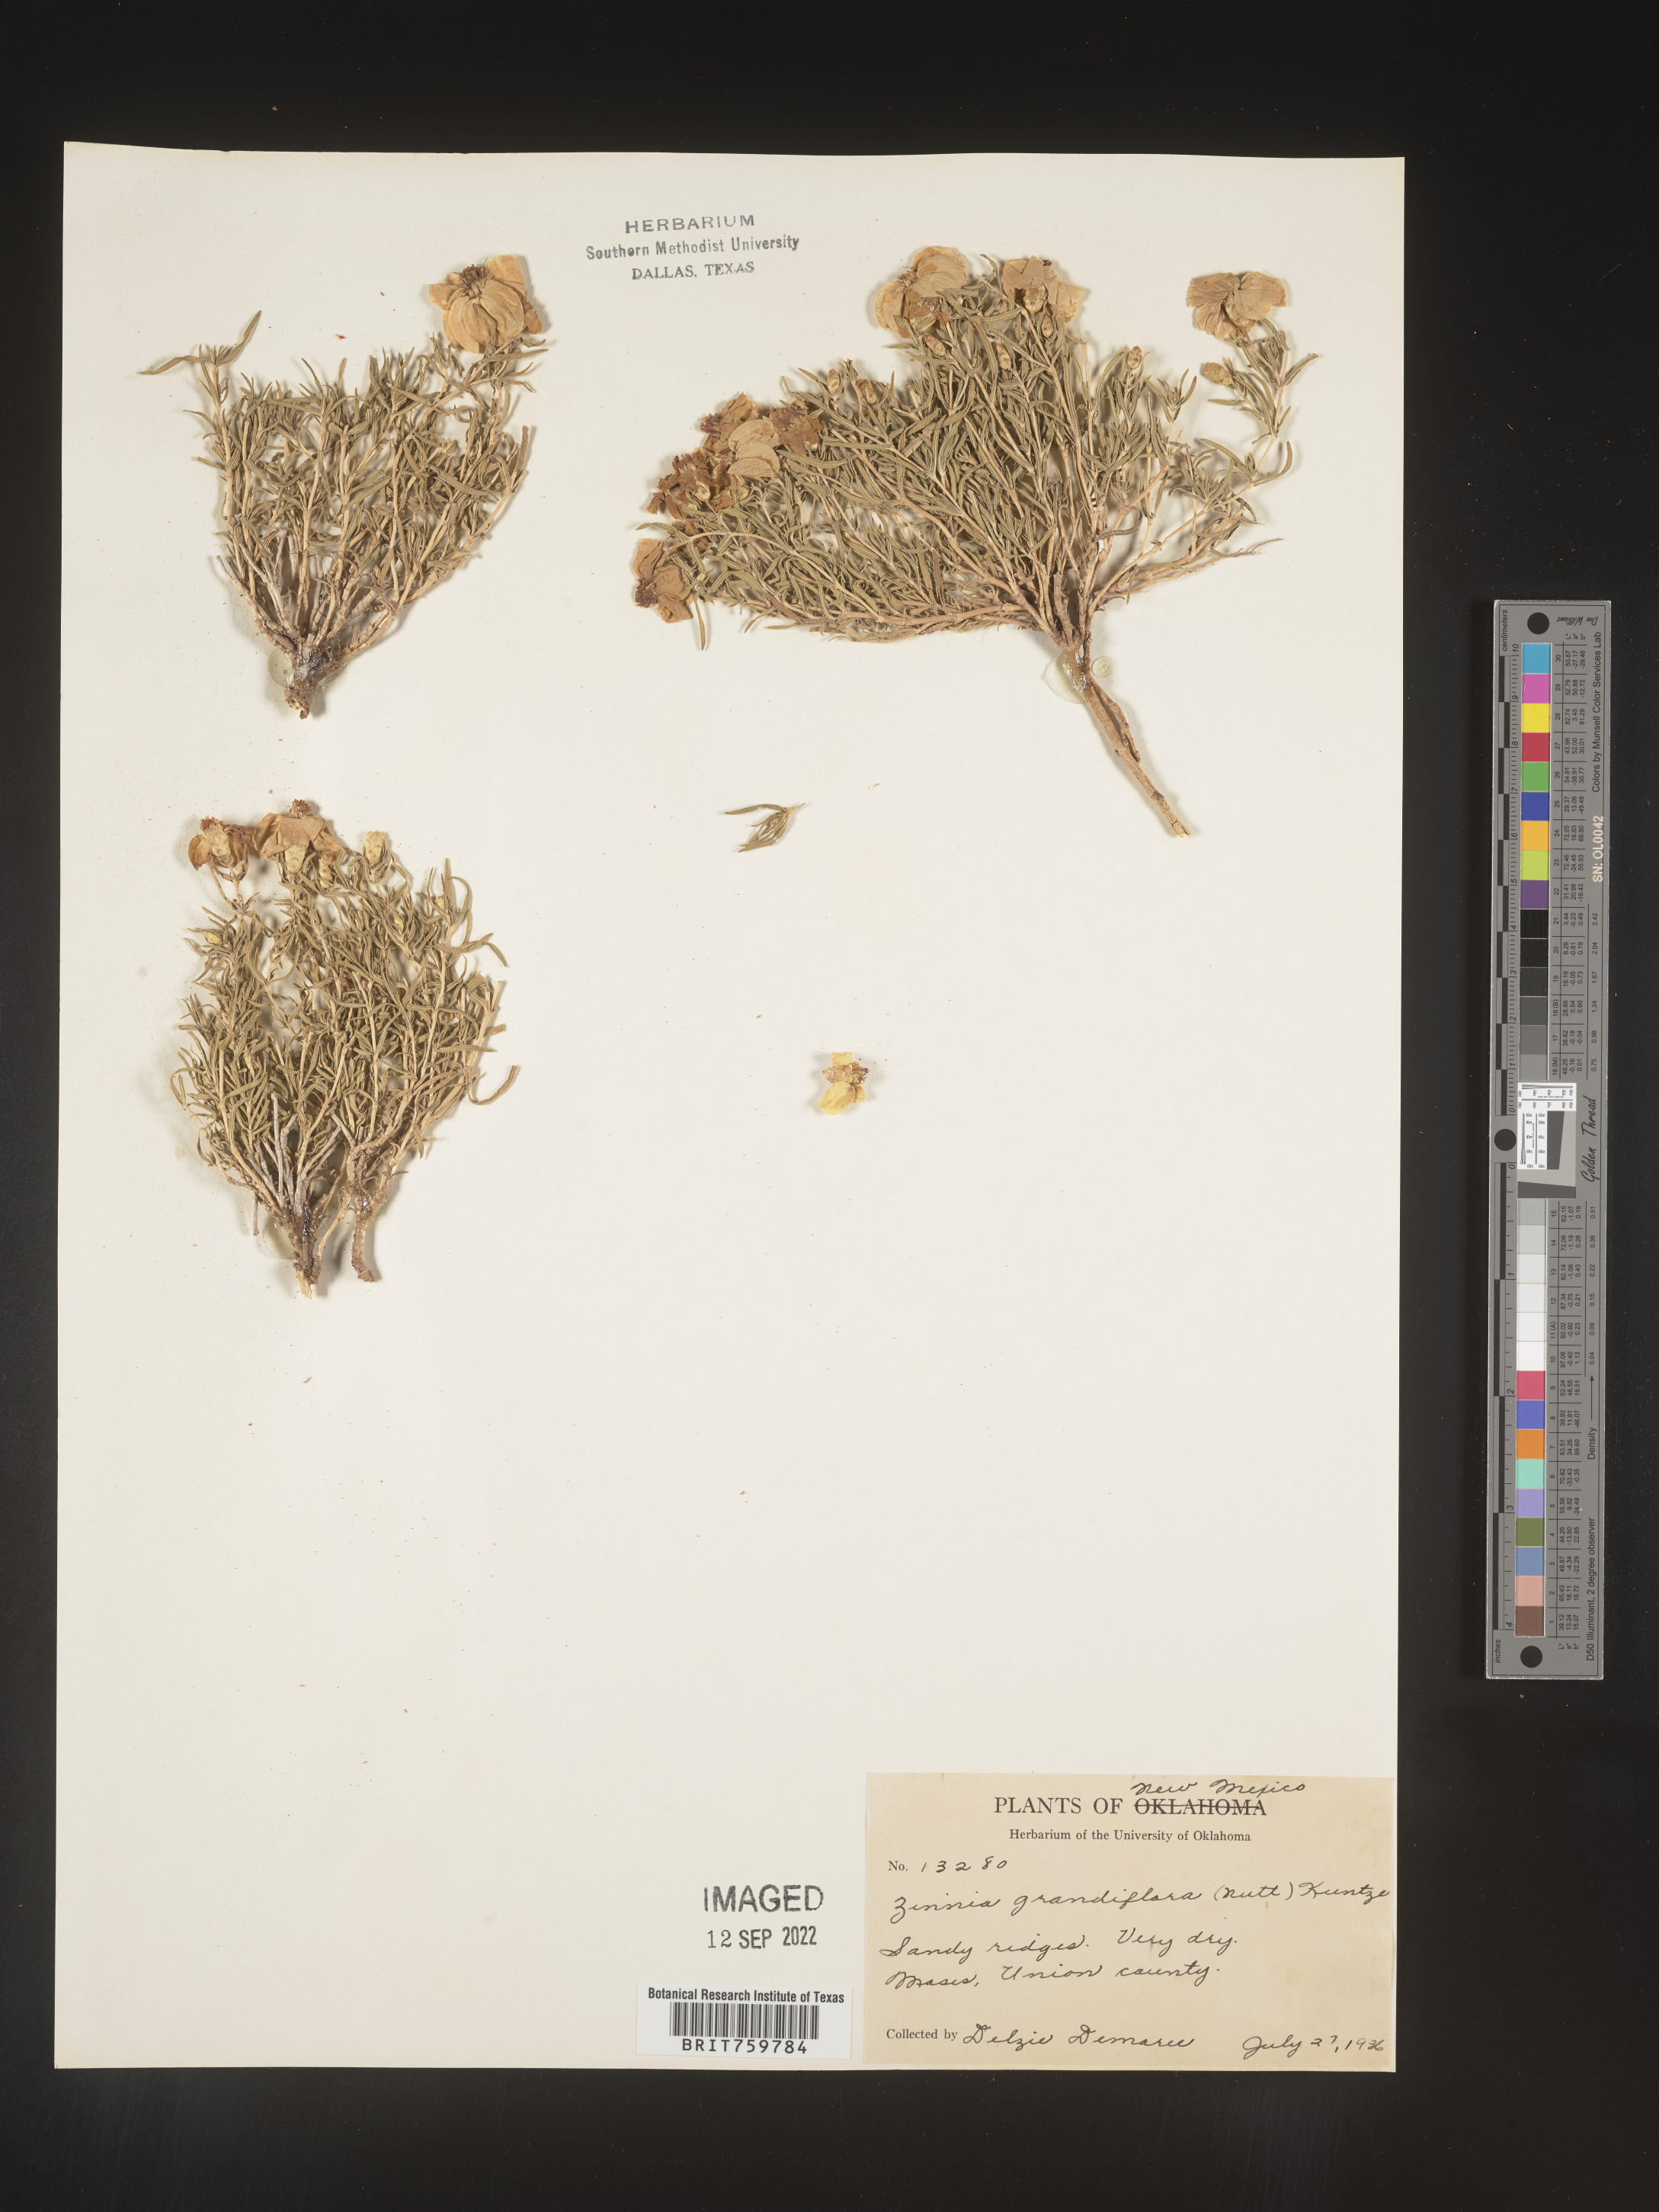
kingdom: Plantae
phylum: Tracheophyta
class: Magnoliopsida
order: Asterales
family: Asteraceae
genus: Zinnia
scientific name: Zinnia grandiflora
